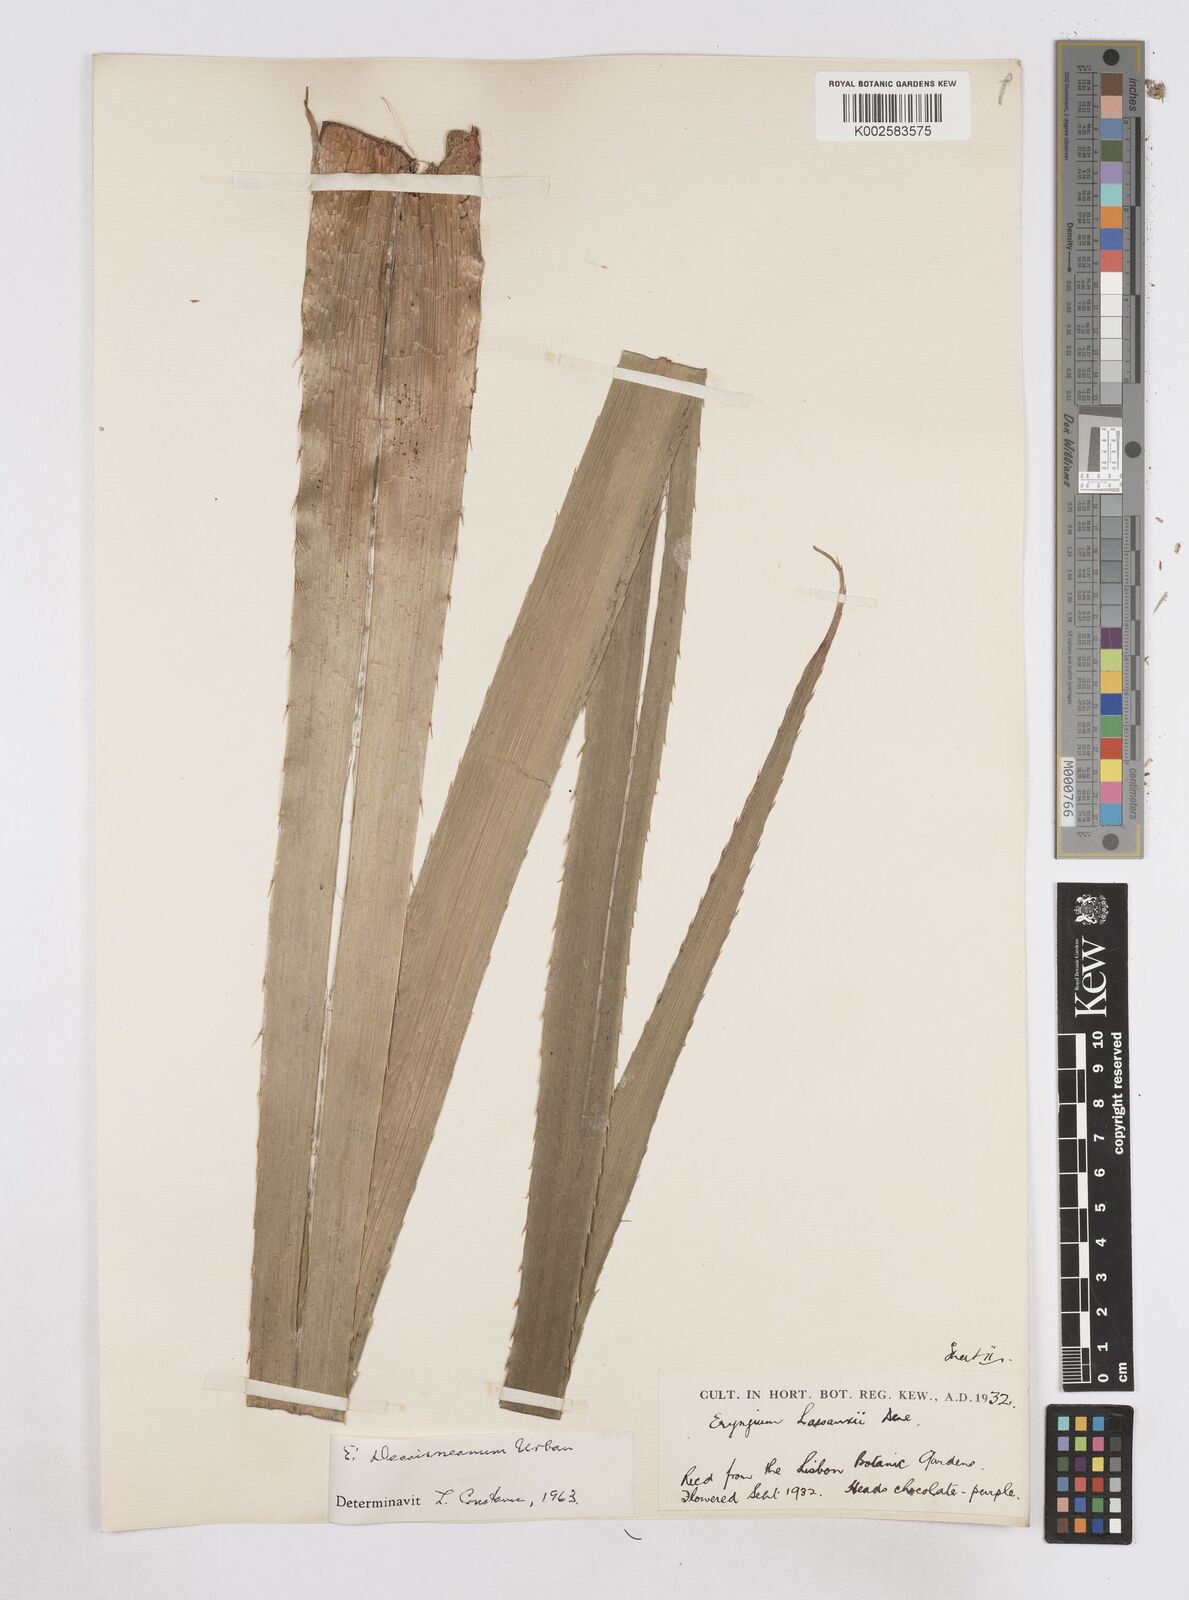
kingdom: Plantae
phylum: Tracheophyta
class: Magnoliopsida
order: Apiales
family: Apiaceae
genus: Eryngium
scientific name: Eryngium pandanifolium
